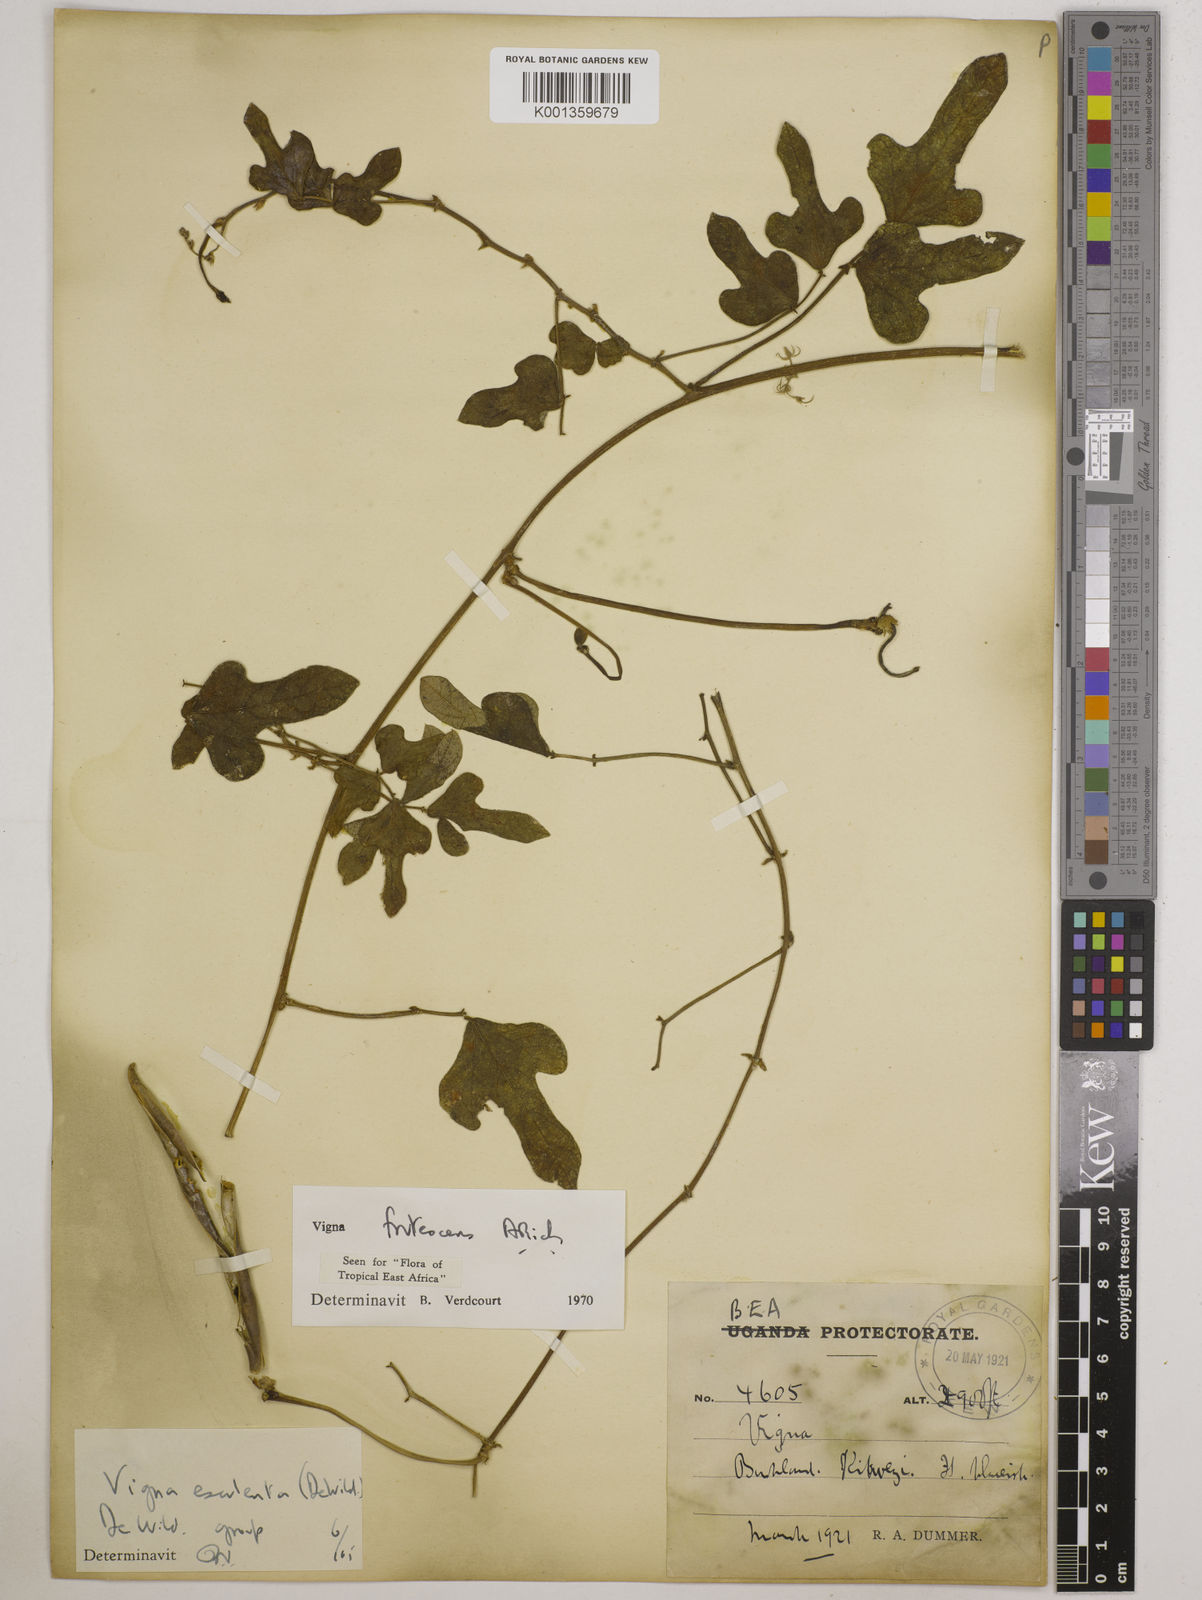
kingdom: Plantae
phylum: Tracheophyta
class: Magnoliopsida
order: Fabales
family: Fabaceae
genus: Vigna
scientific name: Vigna frutescens
